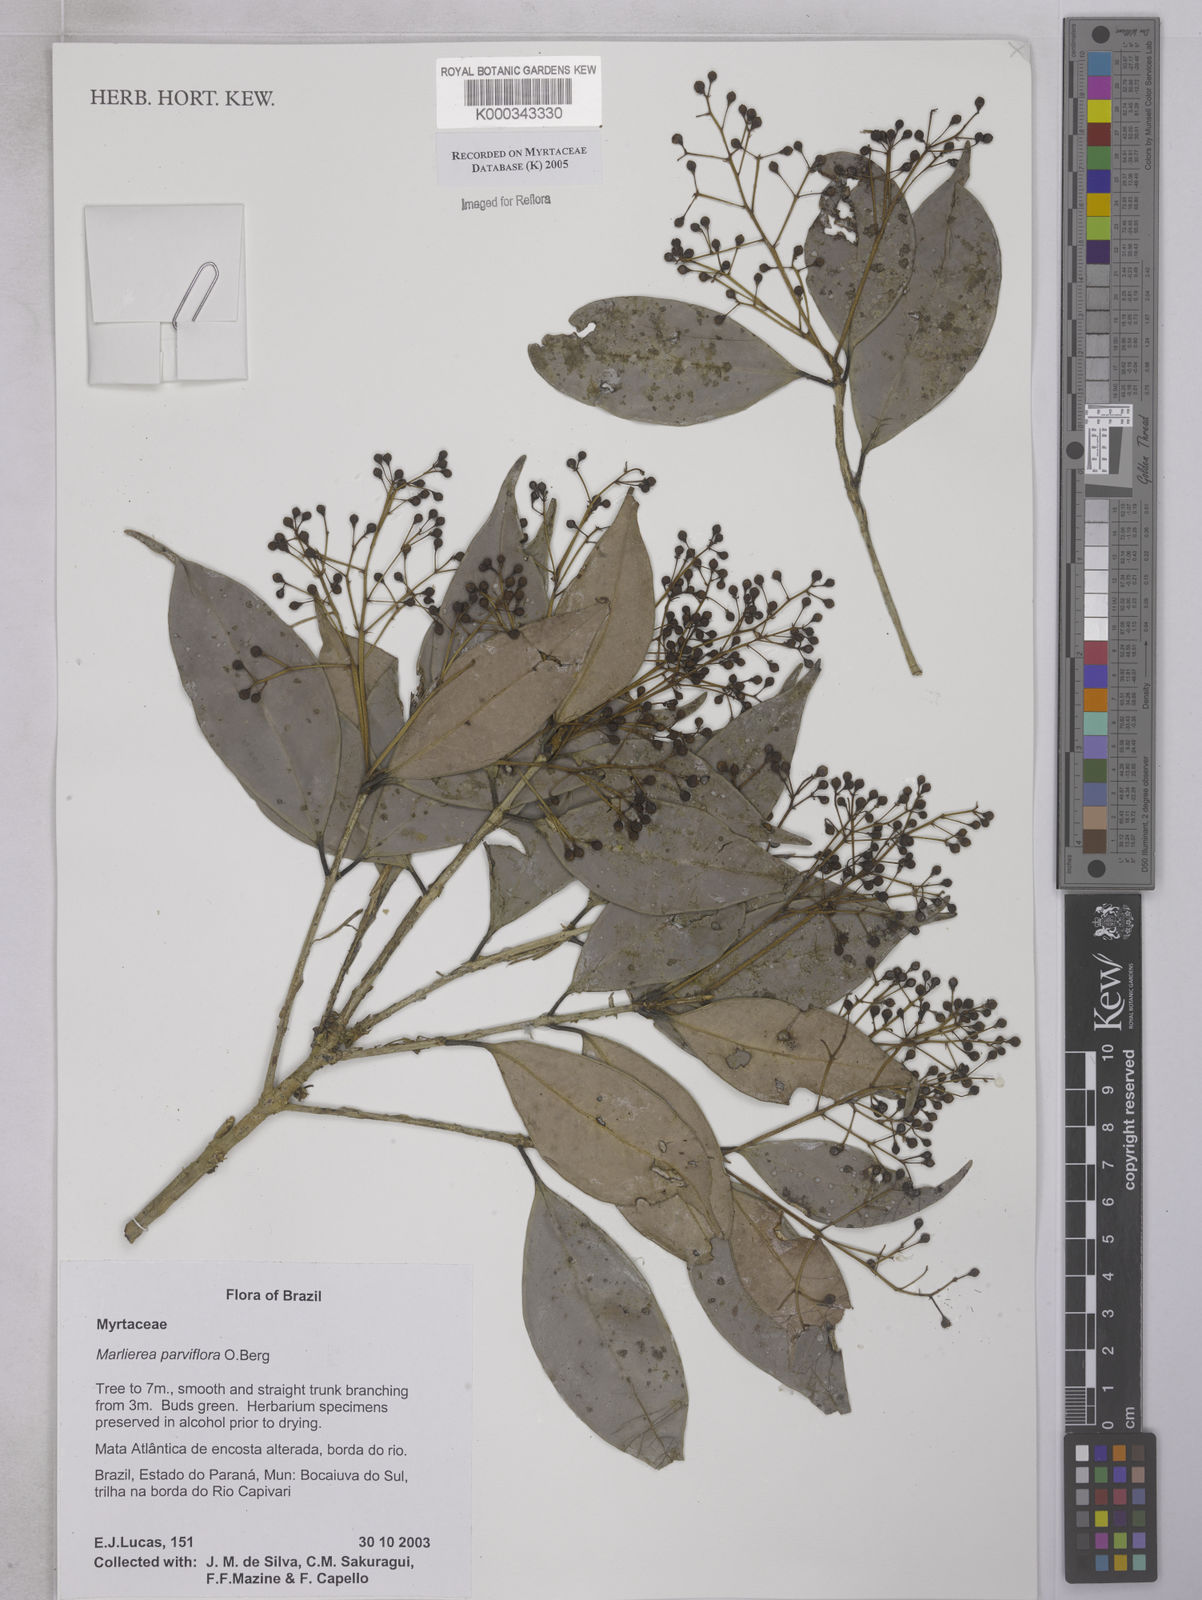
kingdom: Plantae
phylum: Tracheophyta
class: Magnoliopsida
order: Myrtales
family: Myrtaceae
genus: Marlierea
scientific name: Marlierea
